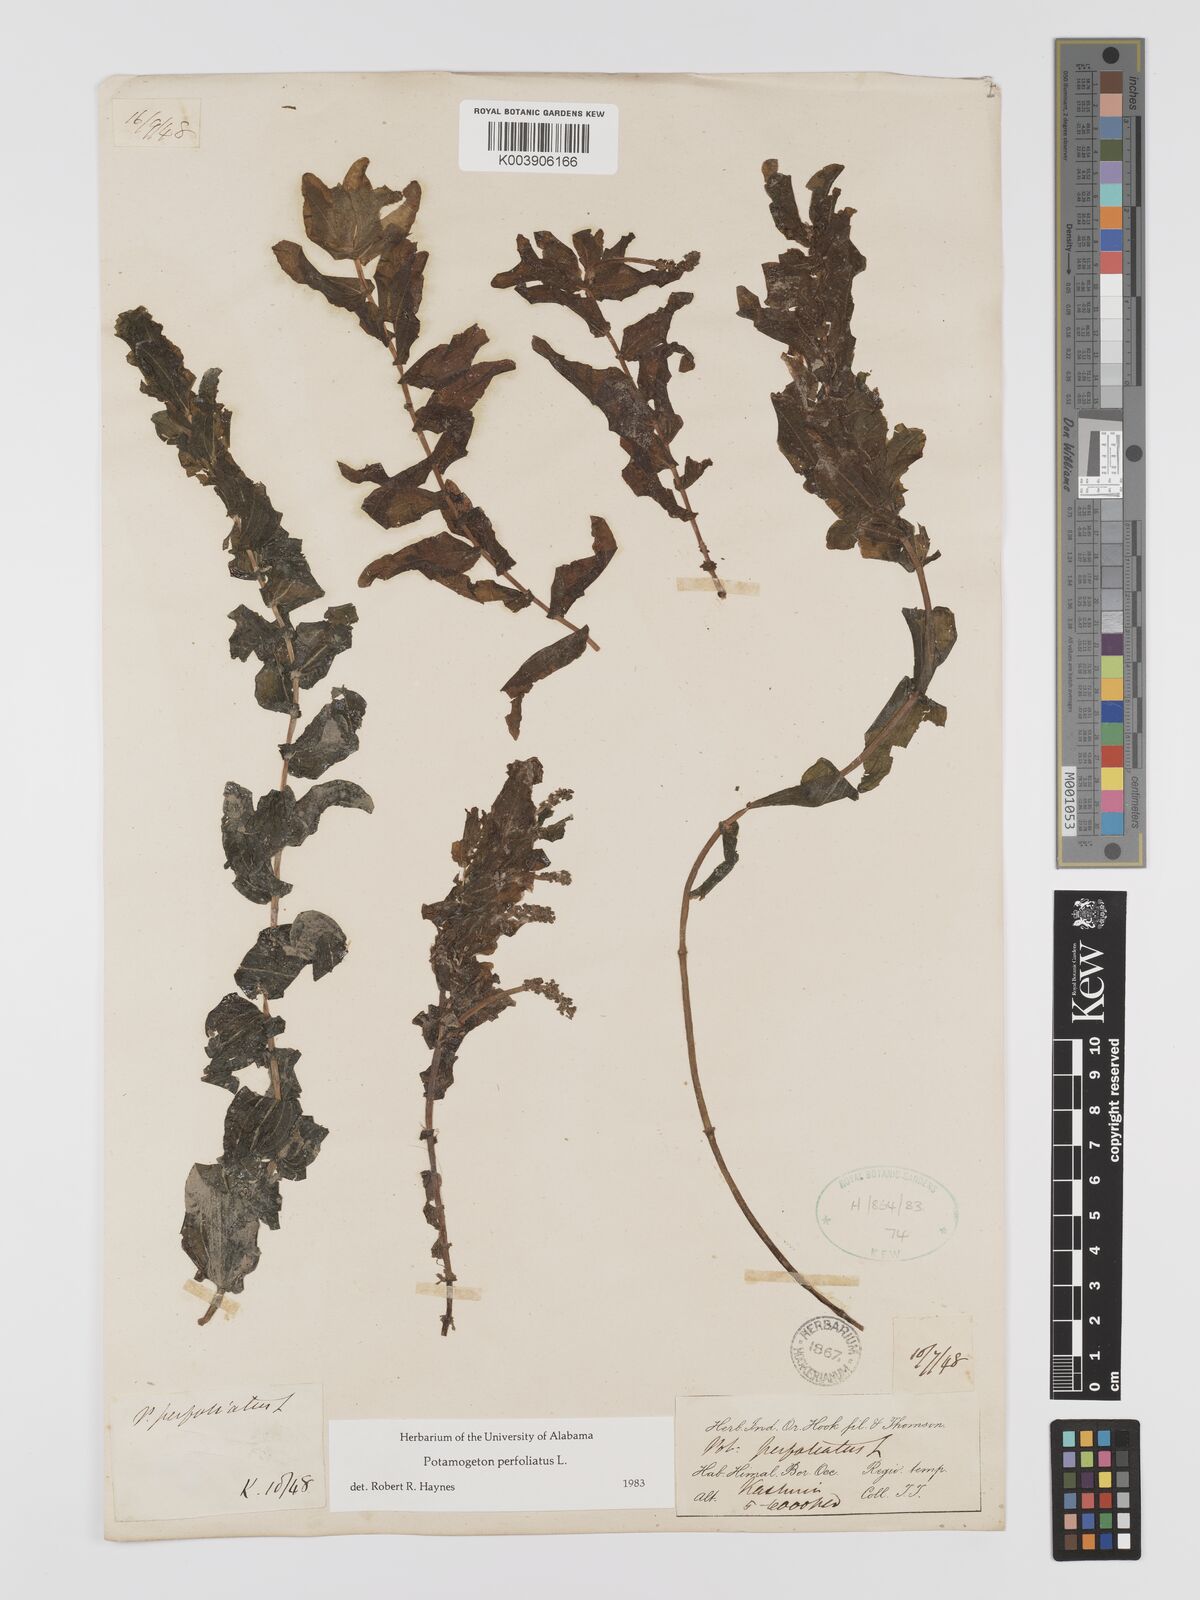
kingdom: Plantae
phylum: Tracheophyta
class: Liliopsida
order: Alismatales
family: Potamogetonaceae
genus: Potamogeton
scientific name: Potamogeton perfoliatus
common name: Perfoliate pondweed
